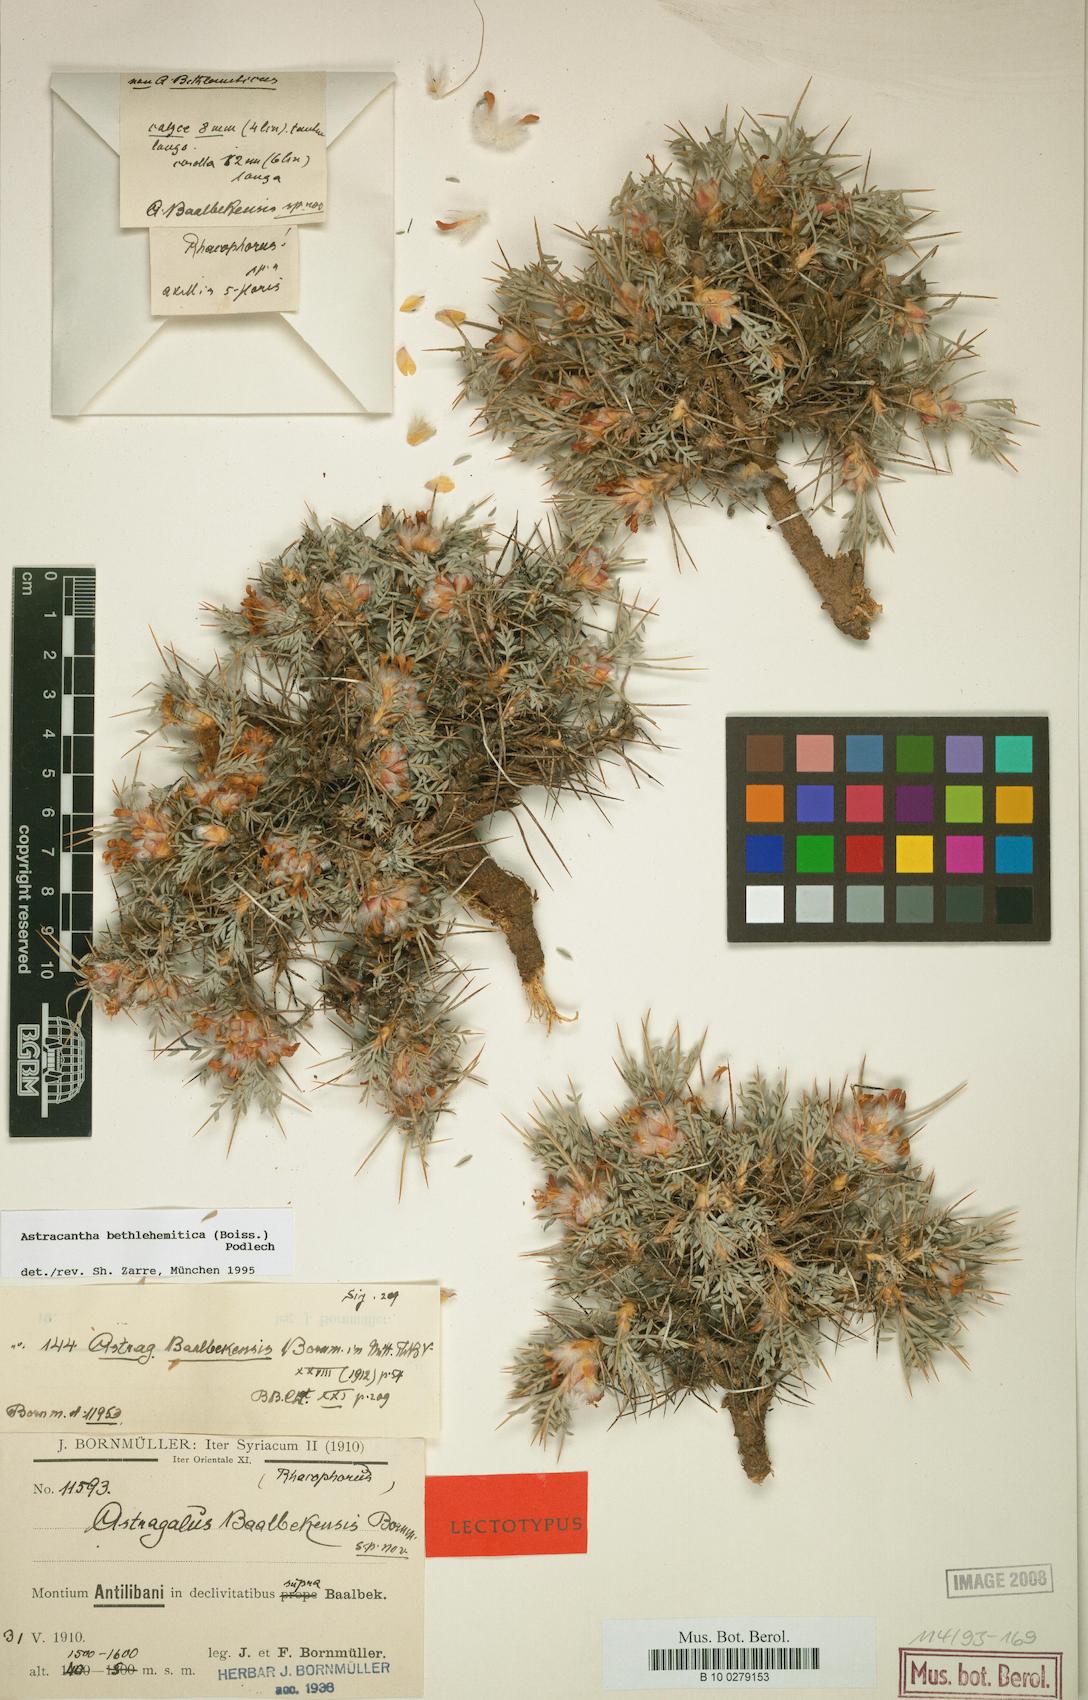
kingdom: Plantae
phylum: Tracheophyta
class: Magnoliopsida
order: Fabales
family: Fabaceae
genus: Astragalus
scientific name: Astragalus bethlehemiticus
